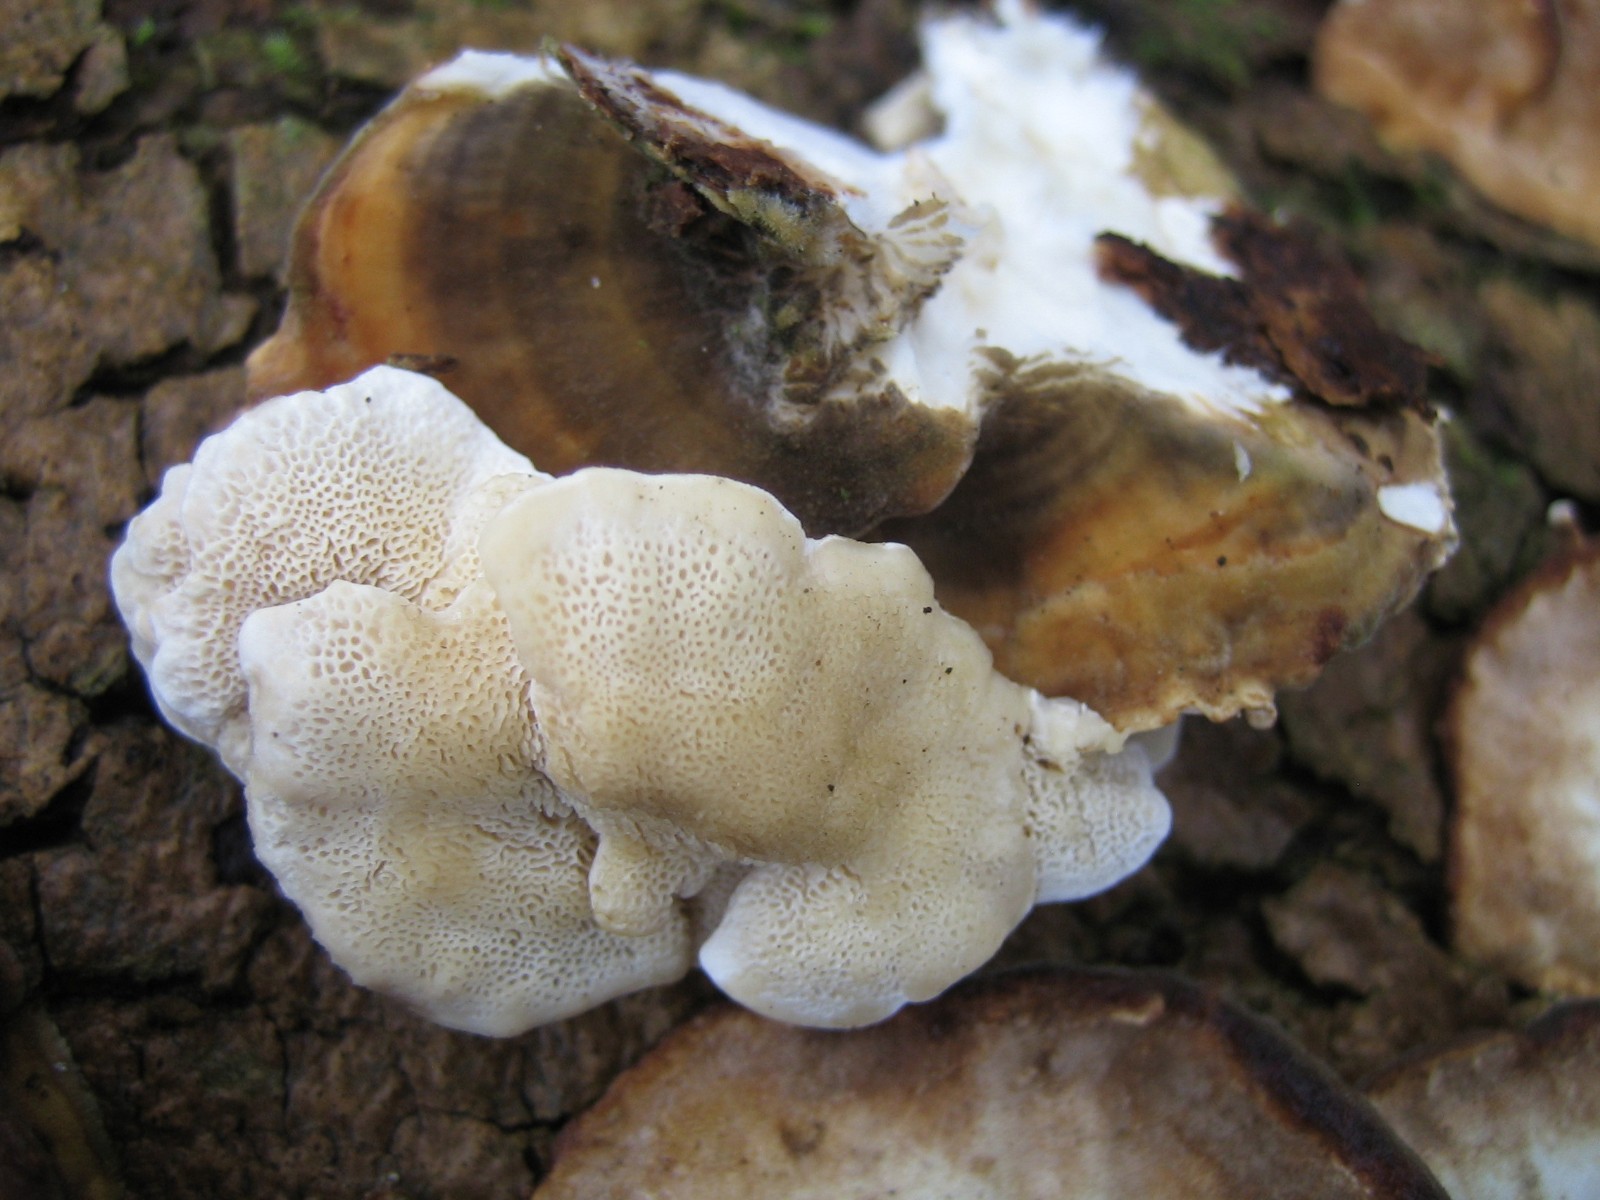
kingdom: Fungi
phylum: Basidiomycota
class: Agaricomycetes
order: Polyporales
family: Polyporaceae
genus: Trametes
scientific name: Trametes versicolor
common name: broget læderporesvamp
